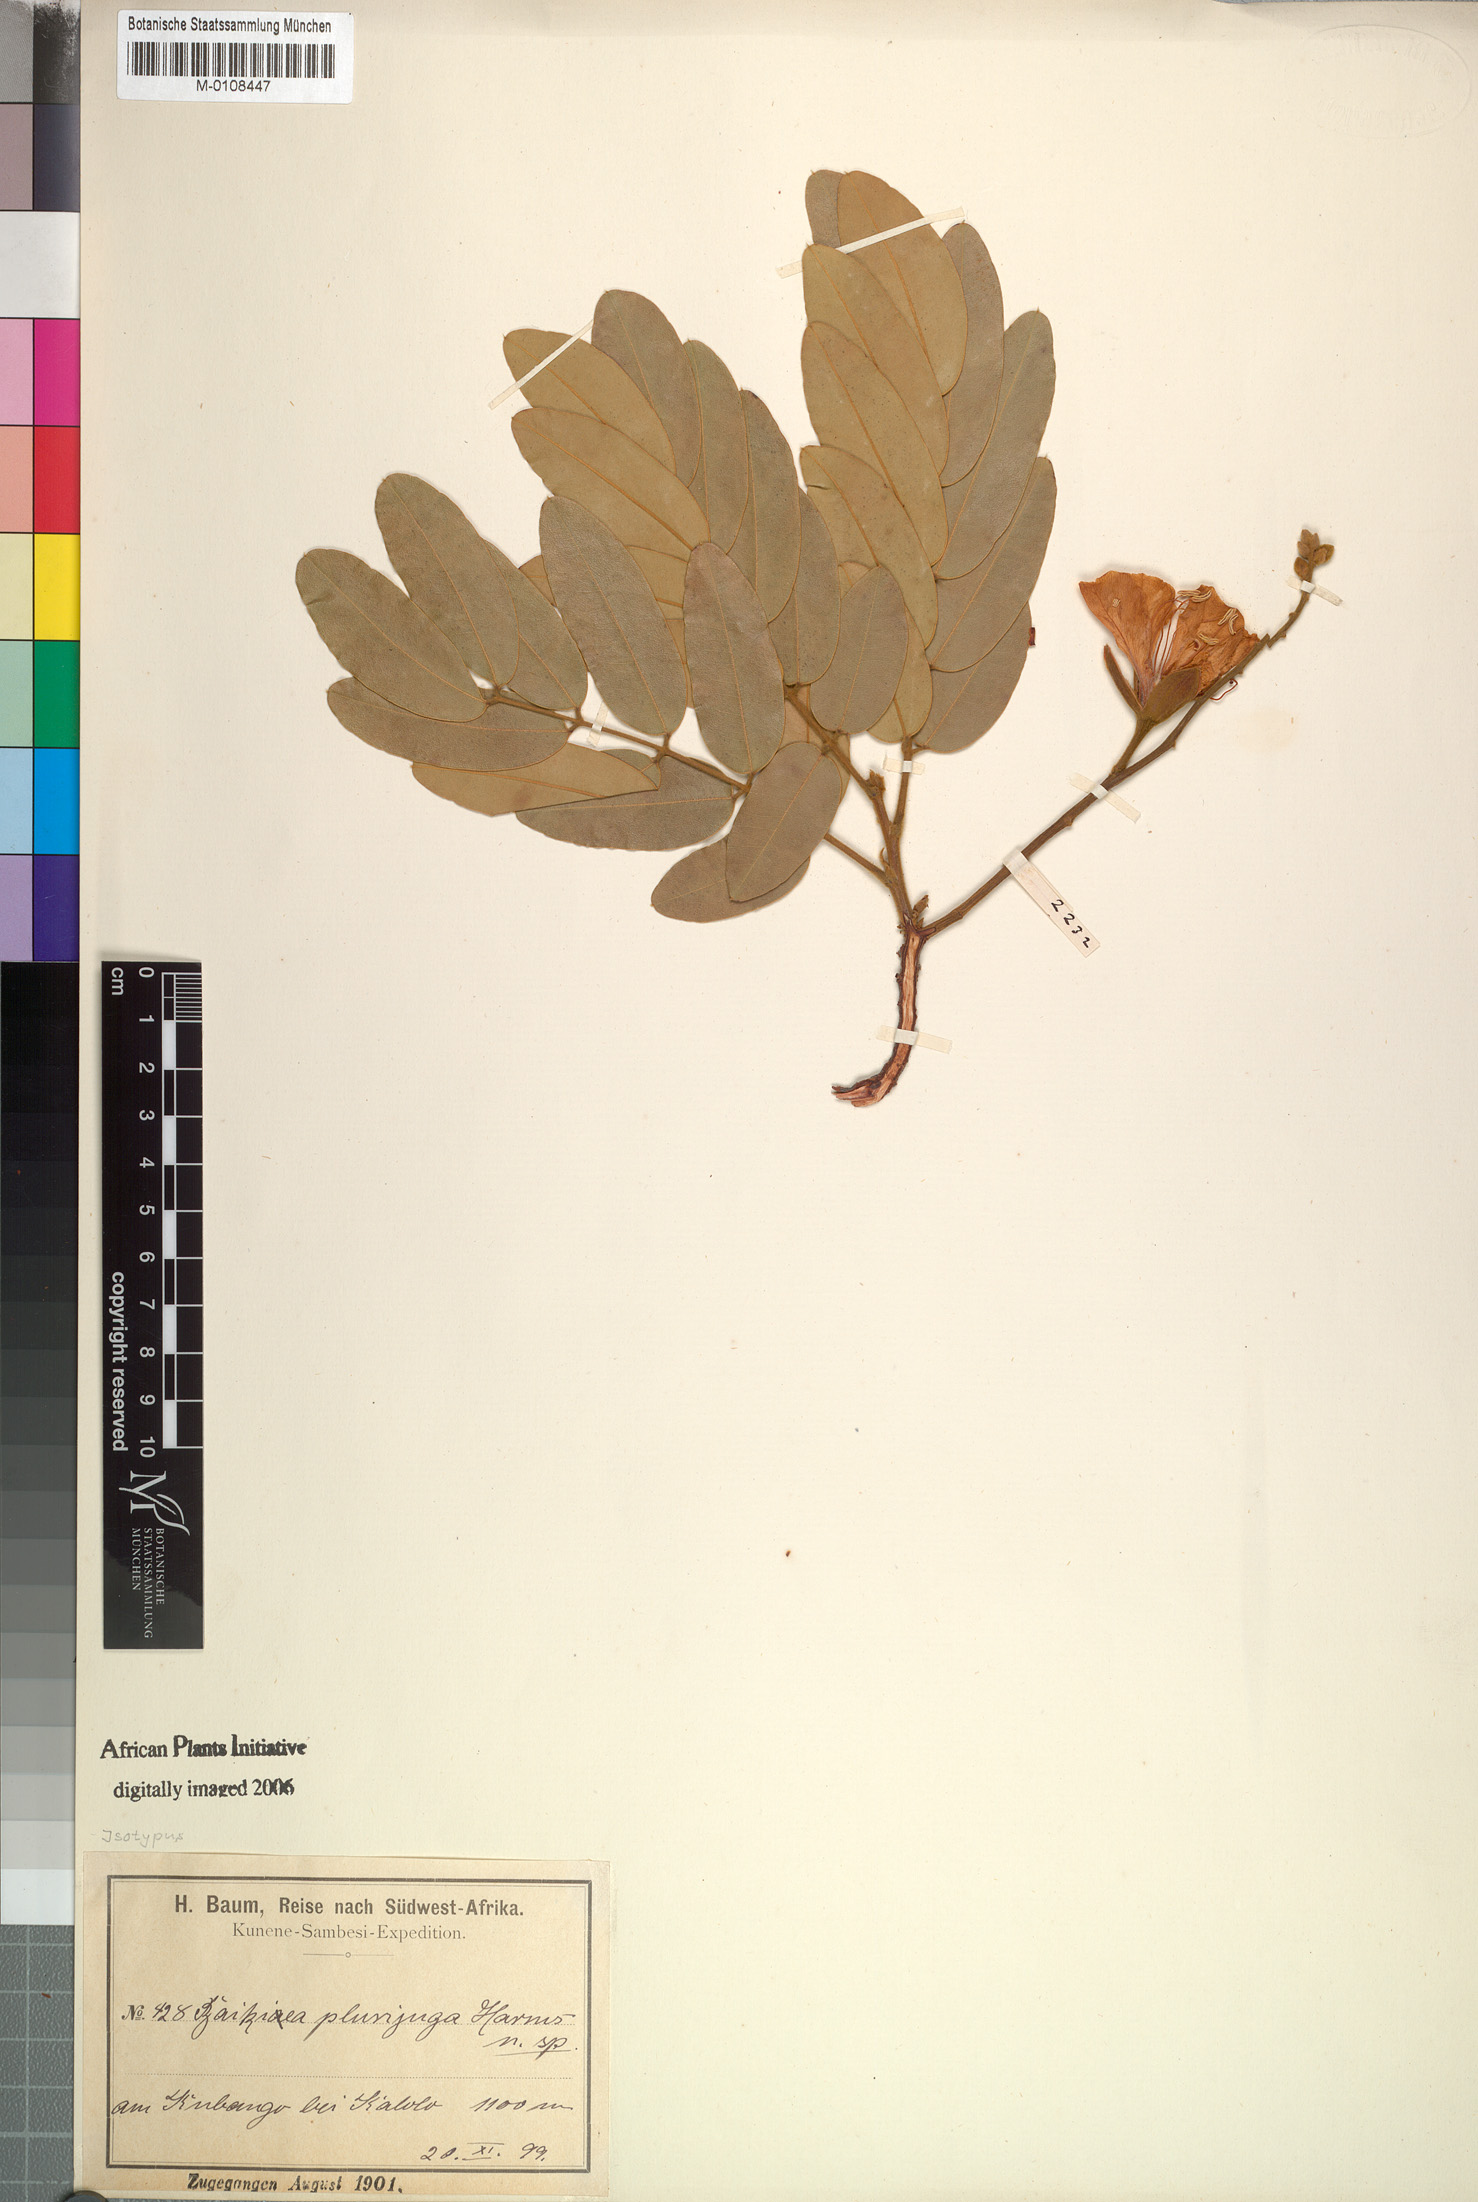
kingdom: Plantae
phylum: Tracheophyta
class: Magnoliopsida
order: Fabales
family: Fabaceae
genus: Baikiaea
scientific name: Baikiaea plurijuga
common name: Rhodesian-teak
